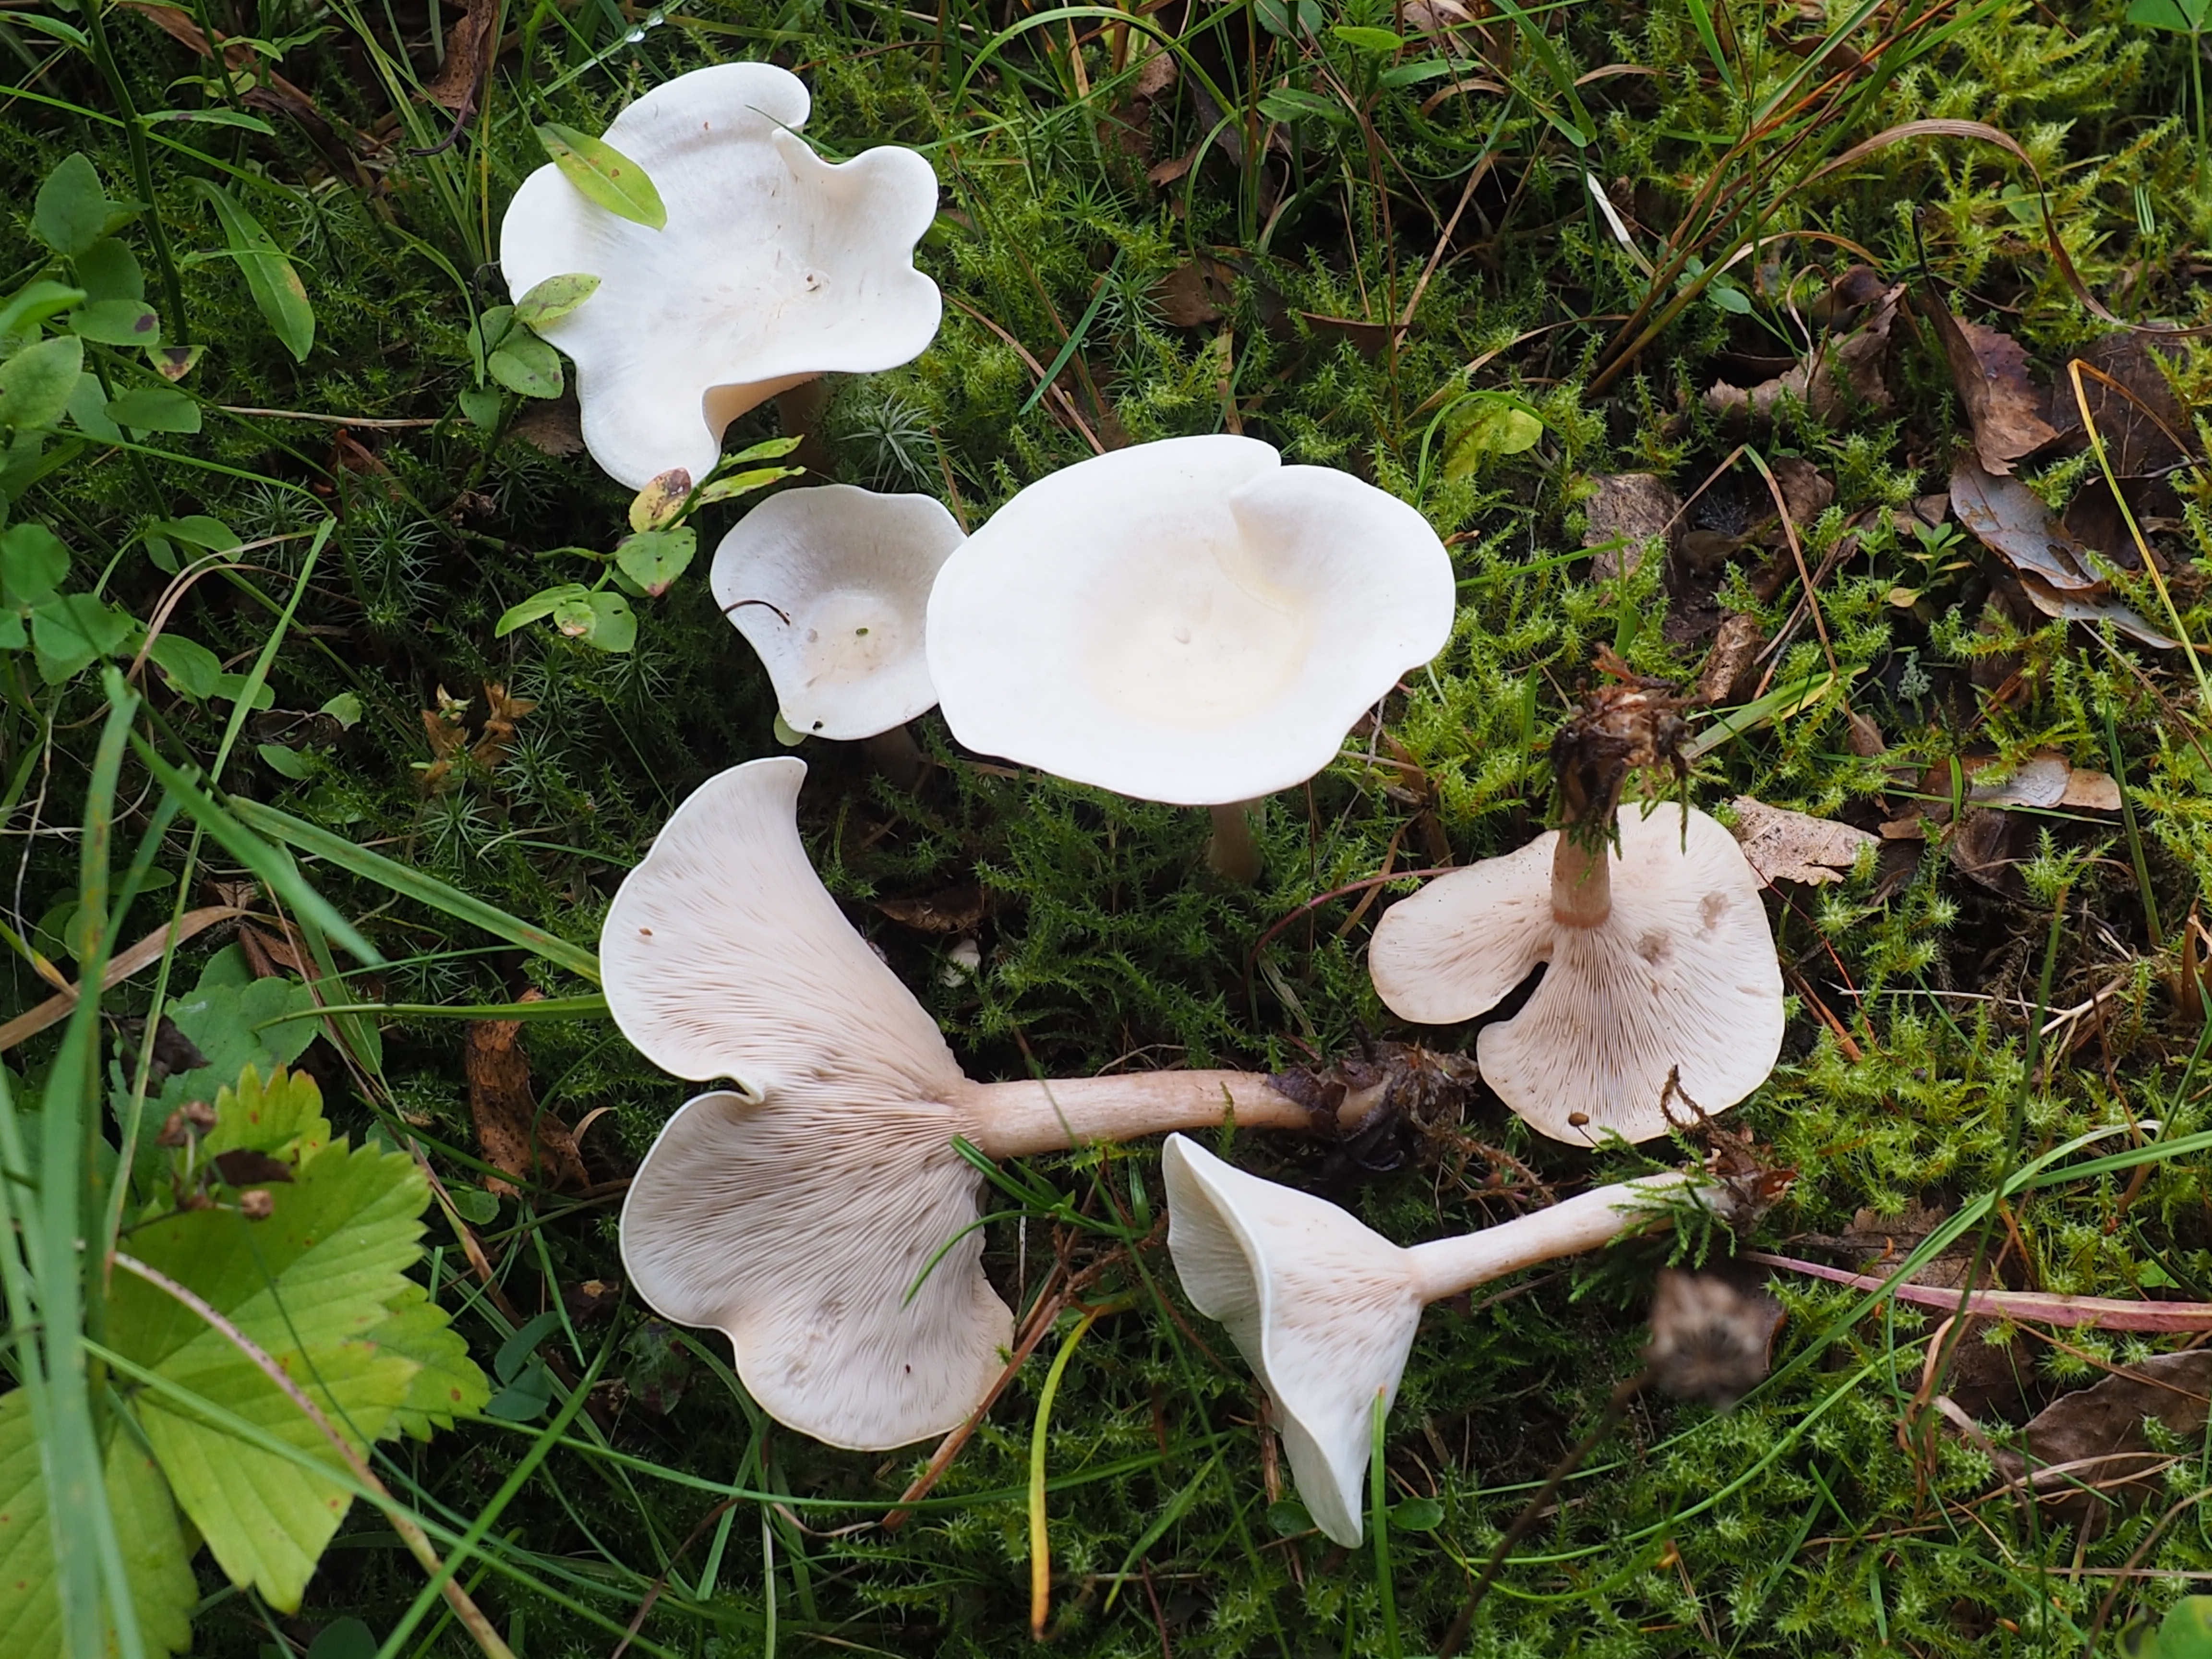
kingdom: Fungi
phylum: Basidiomycota
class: Agaricomycetes
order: Agaricales
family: Tricholomataceae
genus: Clitocybe
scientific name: Clitocybe
